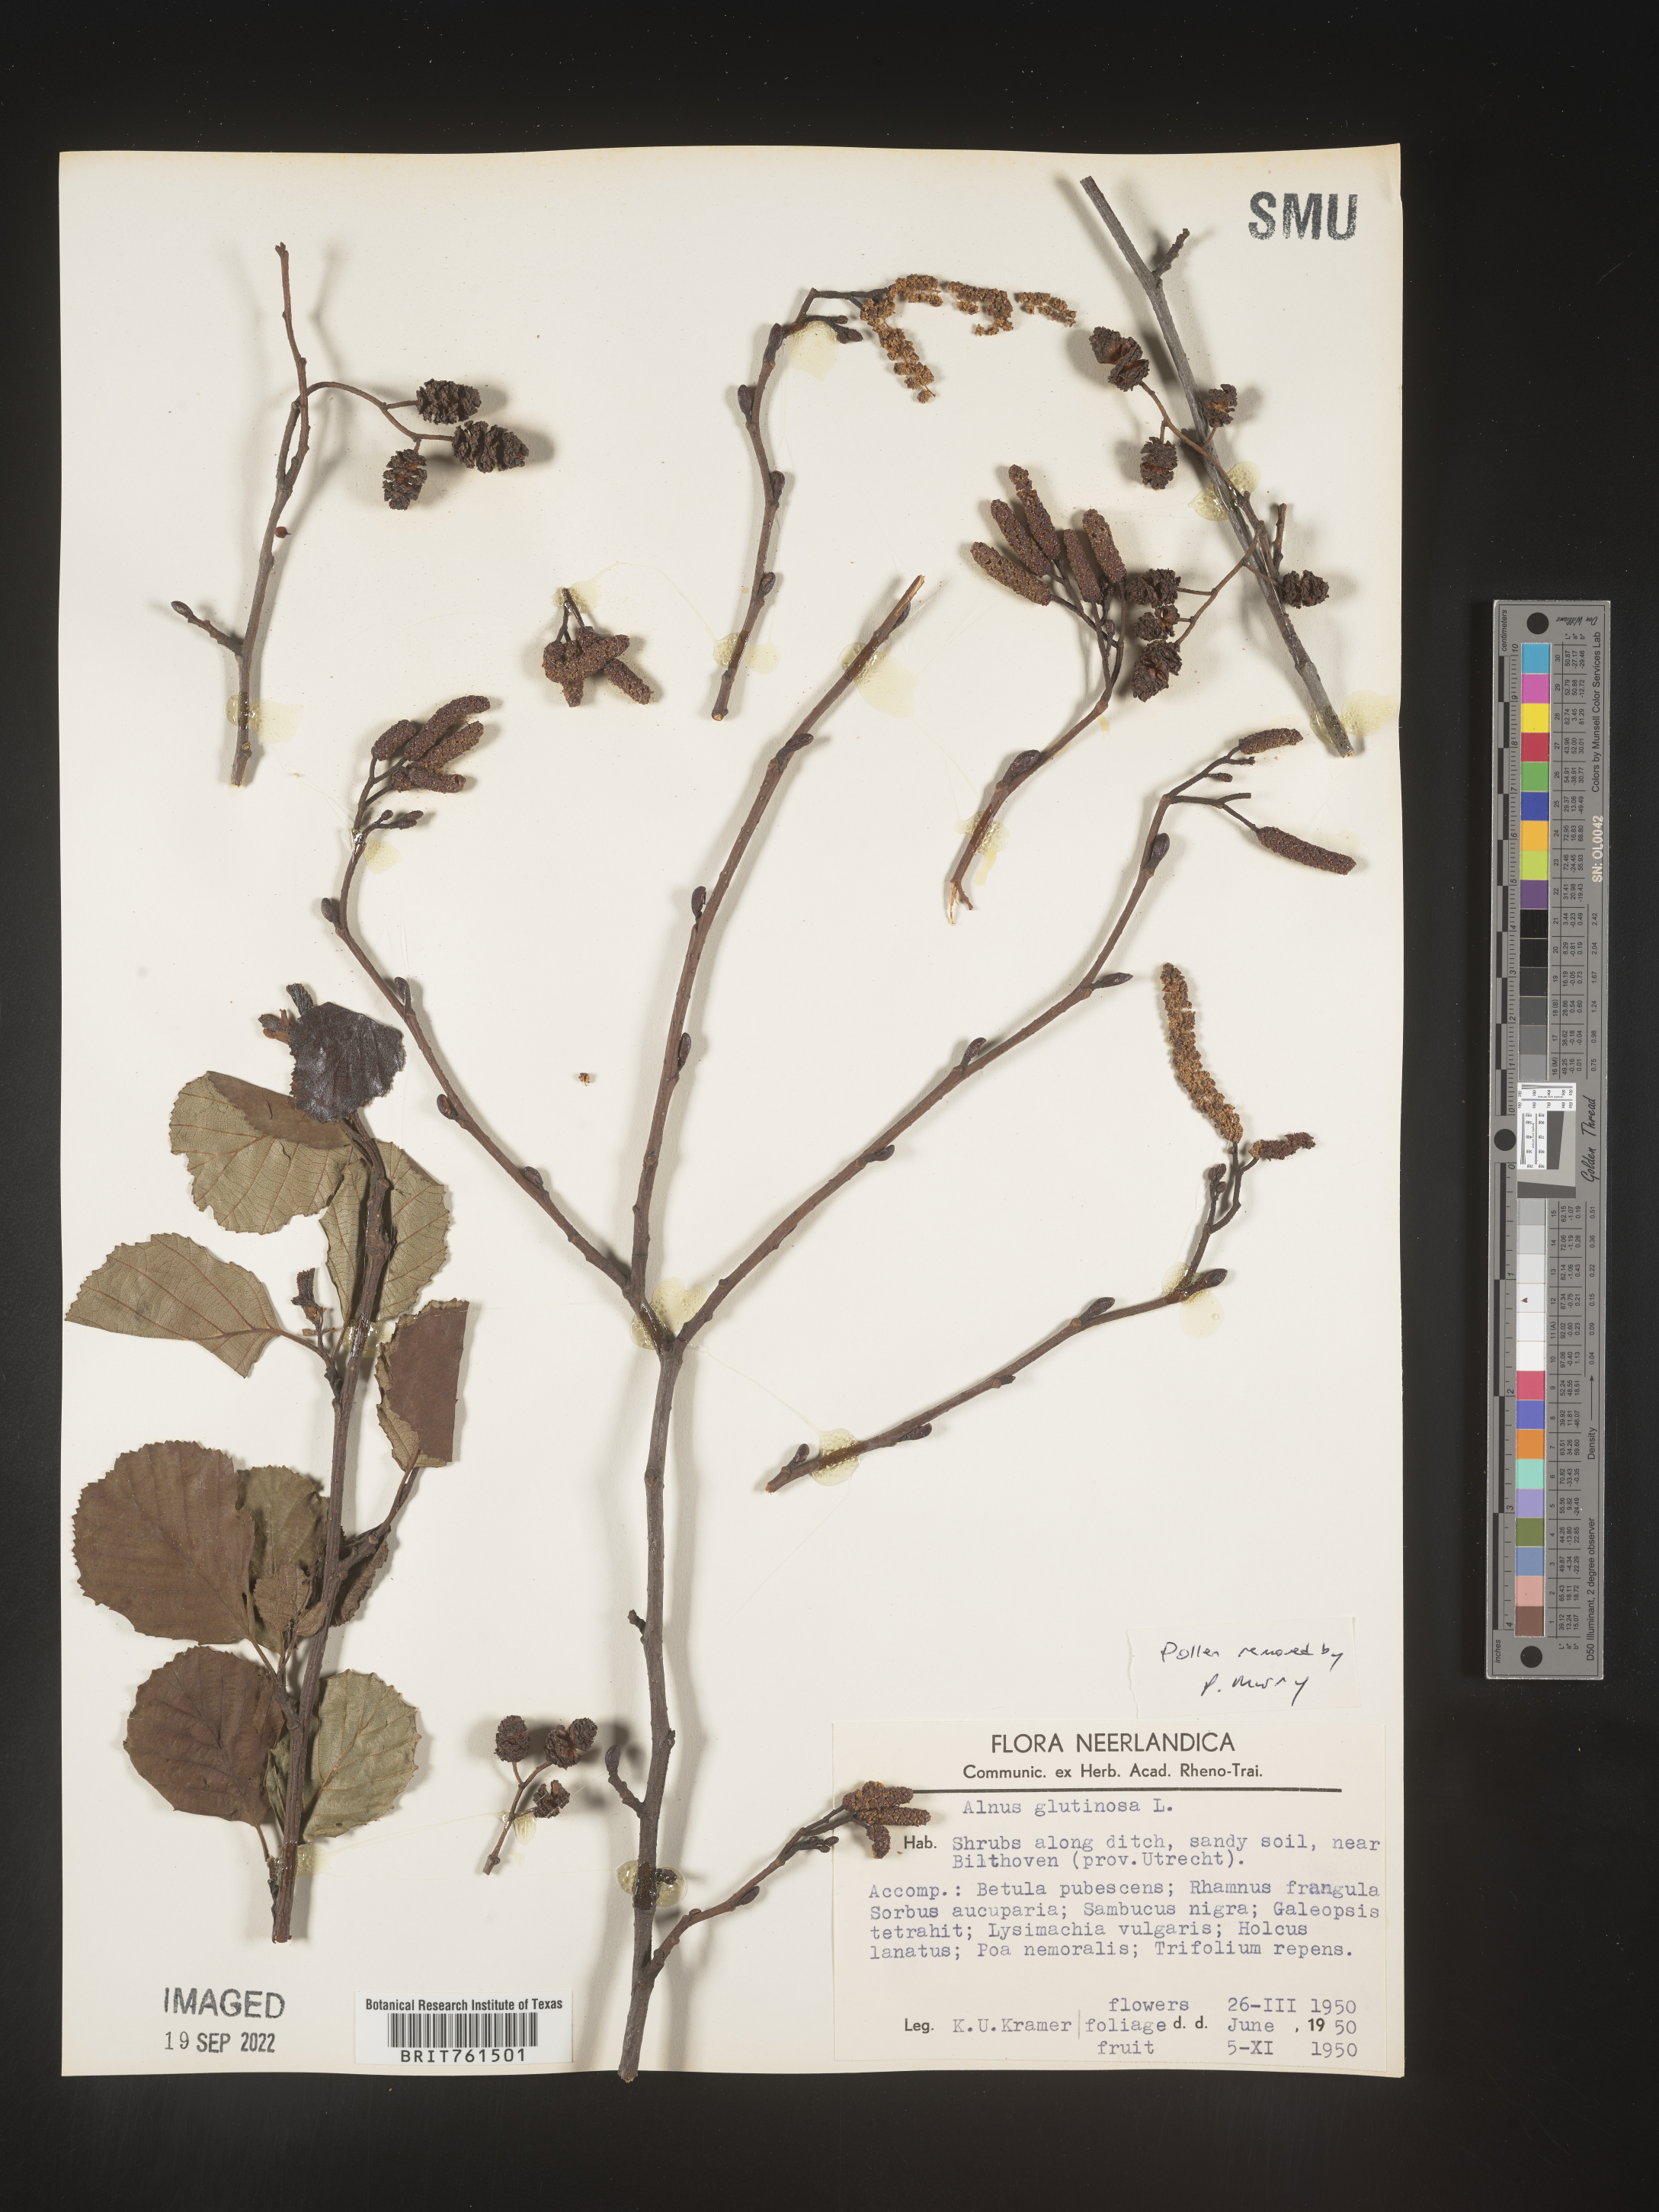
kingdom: Plantae
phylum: Tracheophyta
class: Magnoliopsida
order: Fagales
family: Betulaceae
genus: Alnus
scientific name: Alnus
